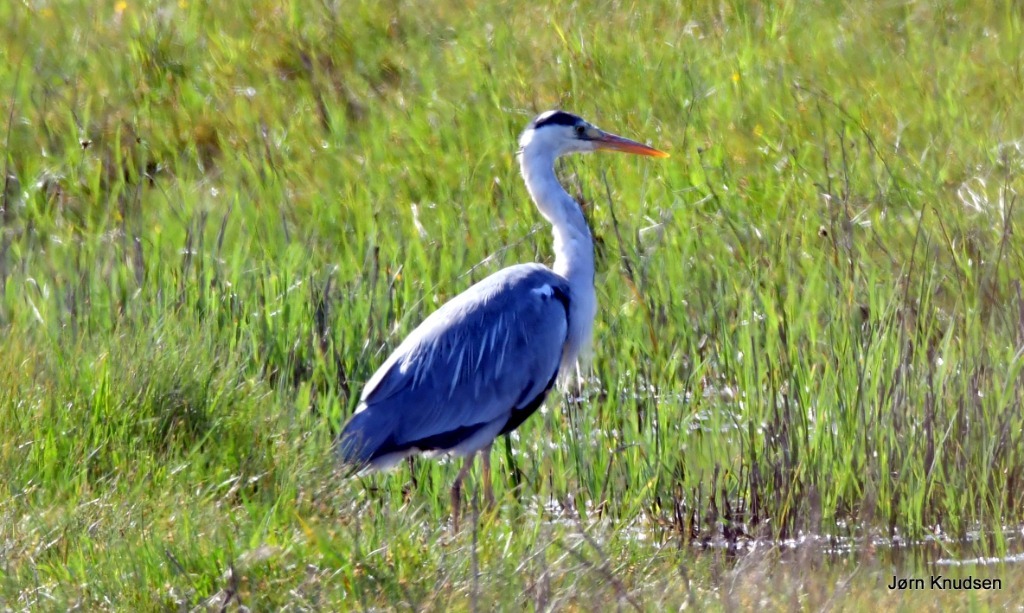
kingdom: Animalia
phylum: Chordata
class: Aves
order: Pelecaniformes
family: Ardeidae
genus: Ardea
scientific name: Ardea cinerea
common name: Fiskehejre
